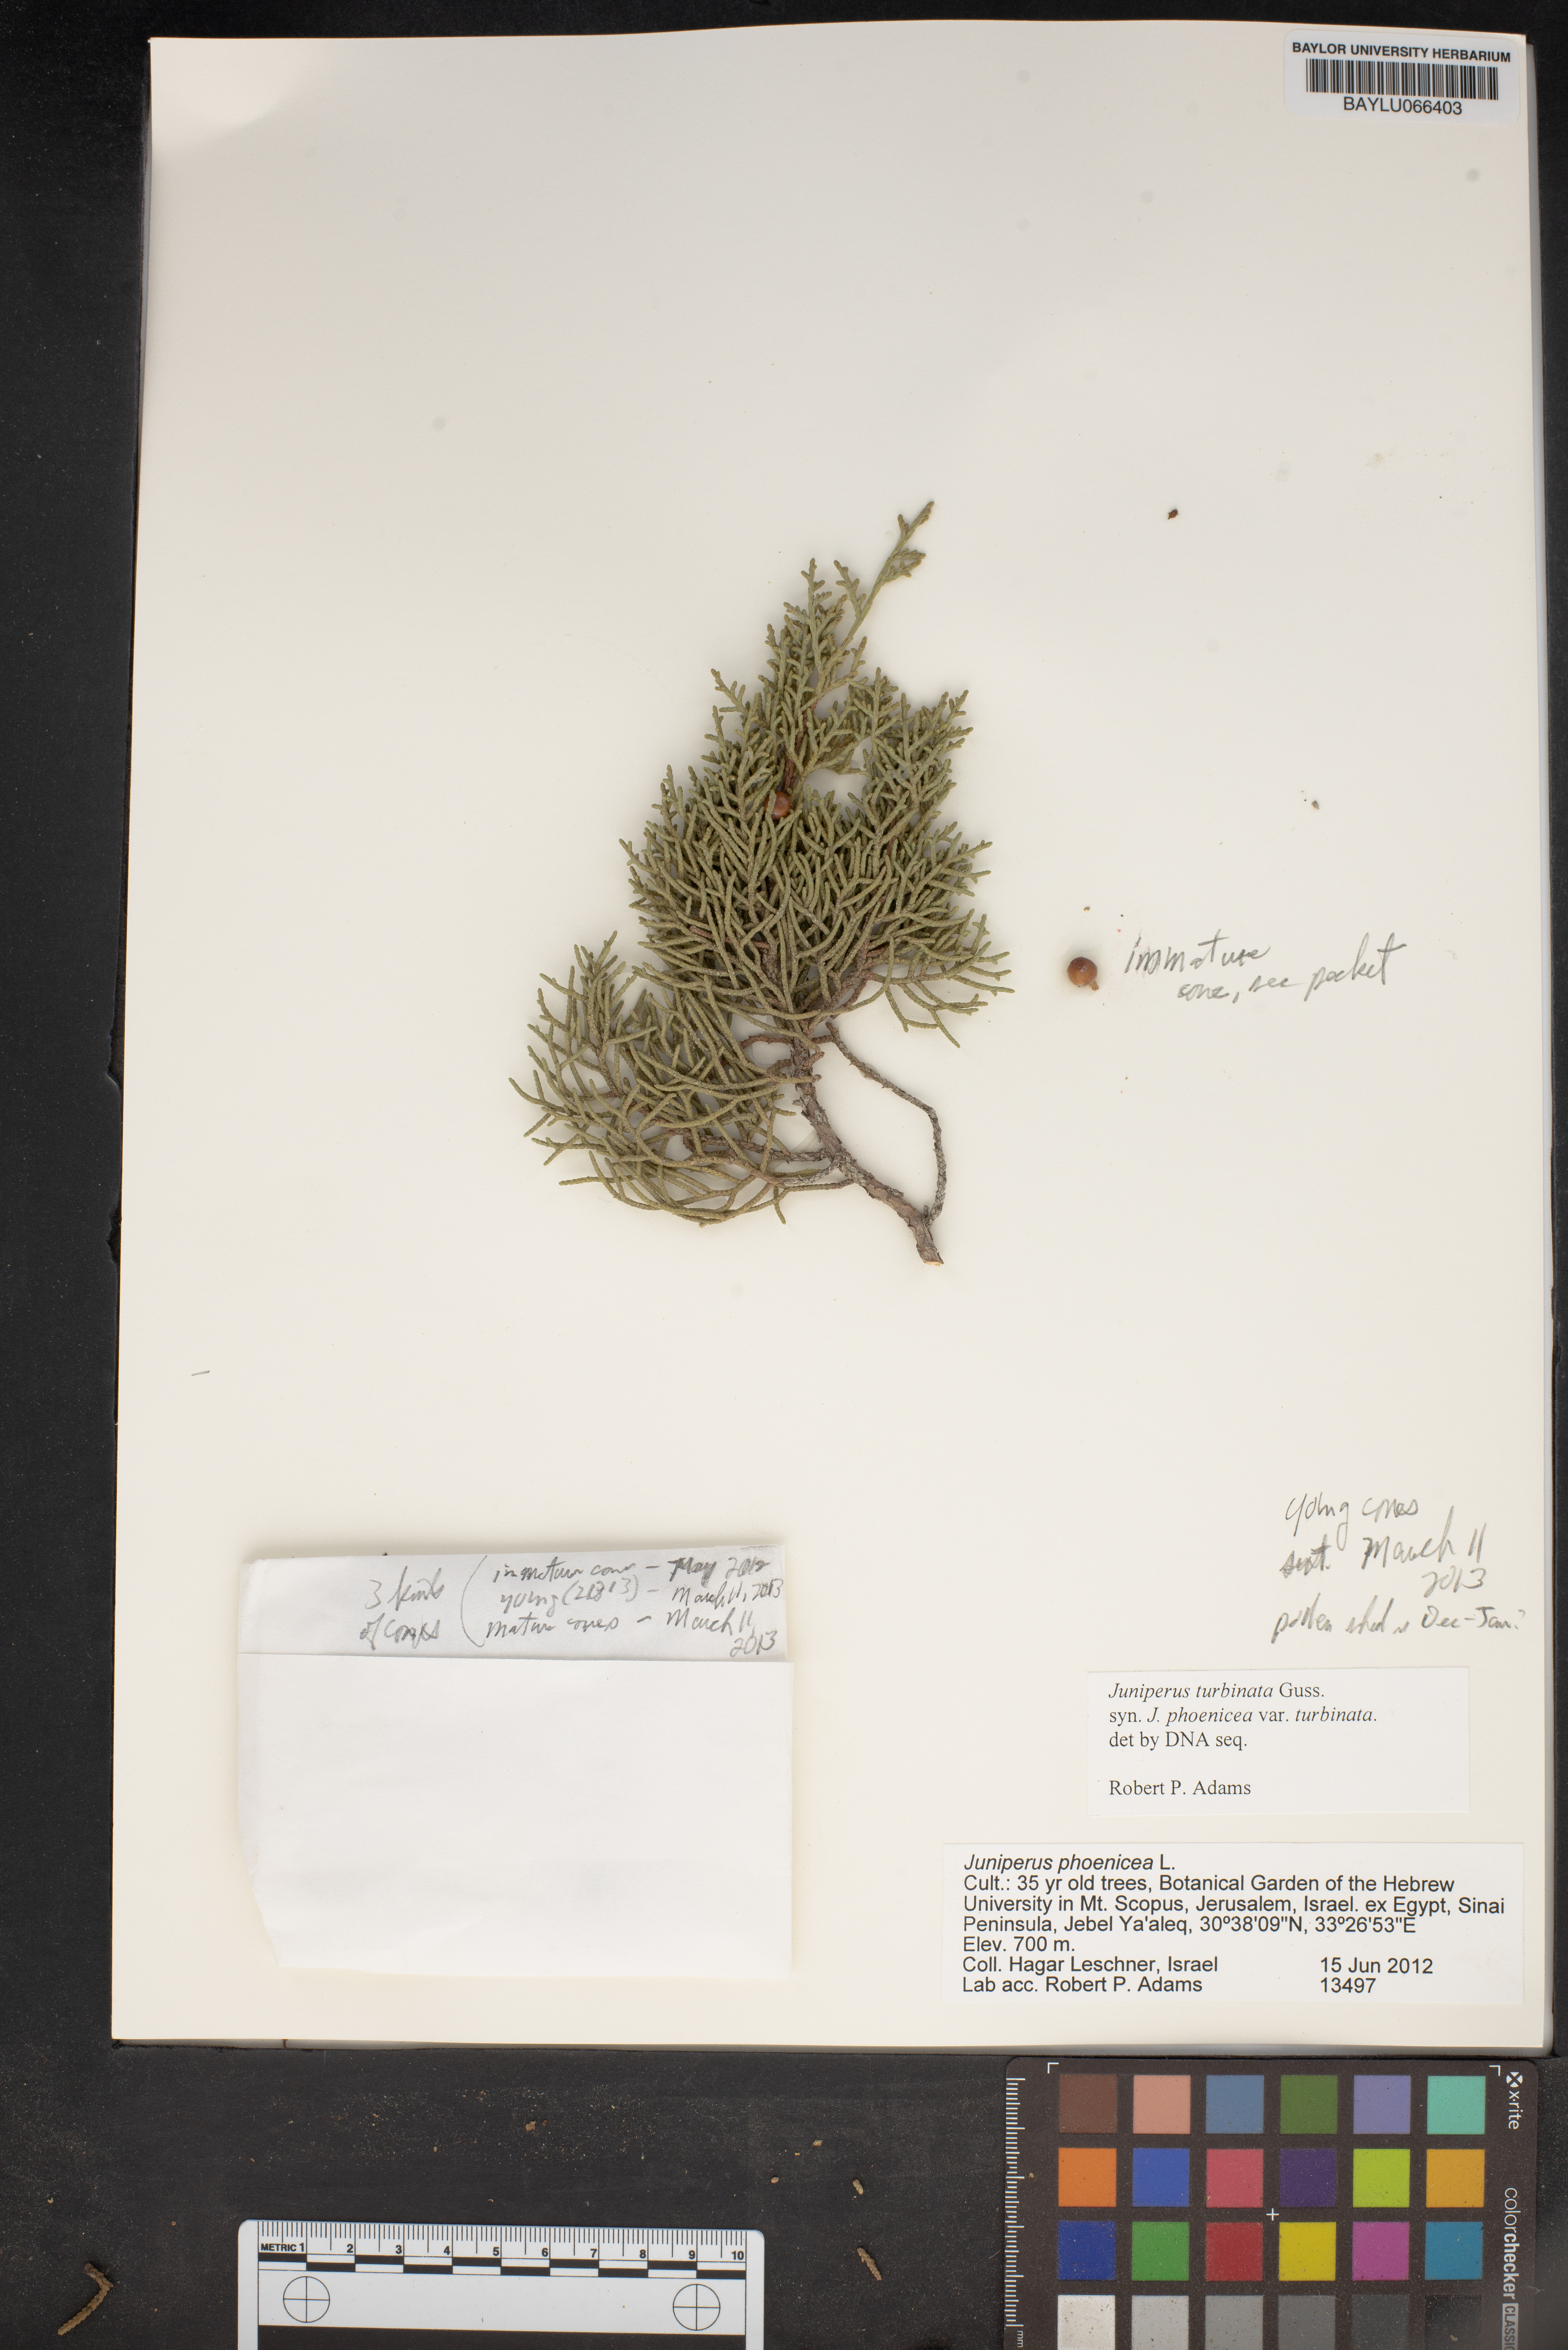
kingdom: Plantae
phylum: Tracheophyta
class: Pinopsida
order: Pinales
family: Cupressaceae
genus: Juniperus
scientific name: Juniperus phoenicea
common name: Phoenician juniper
